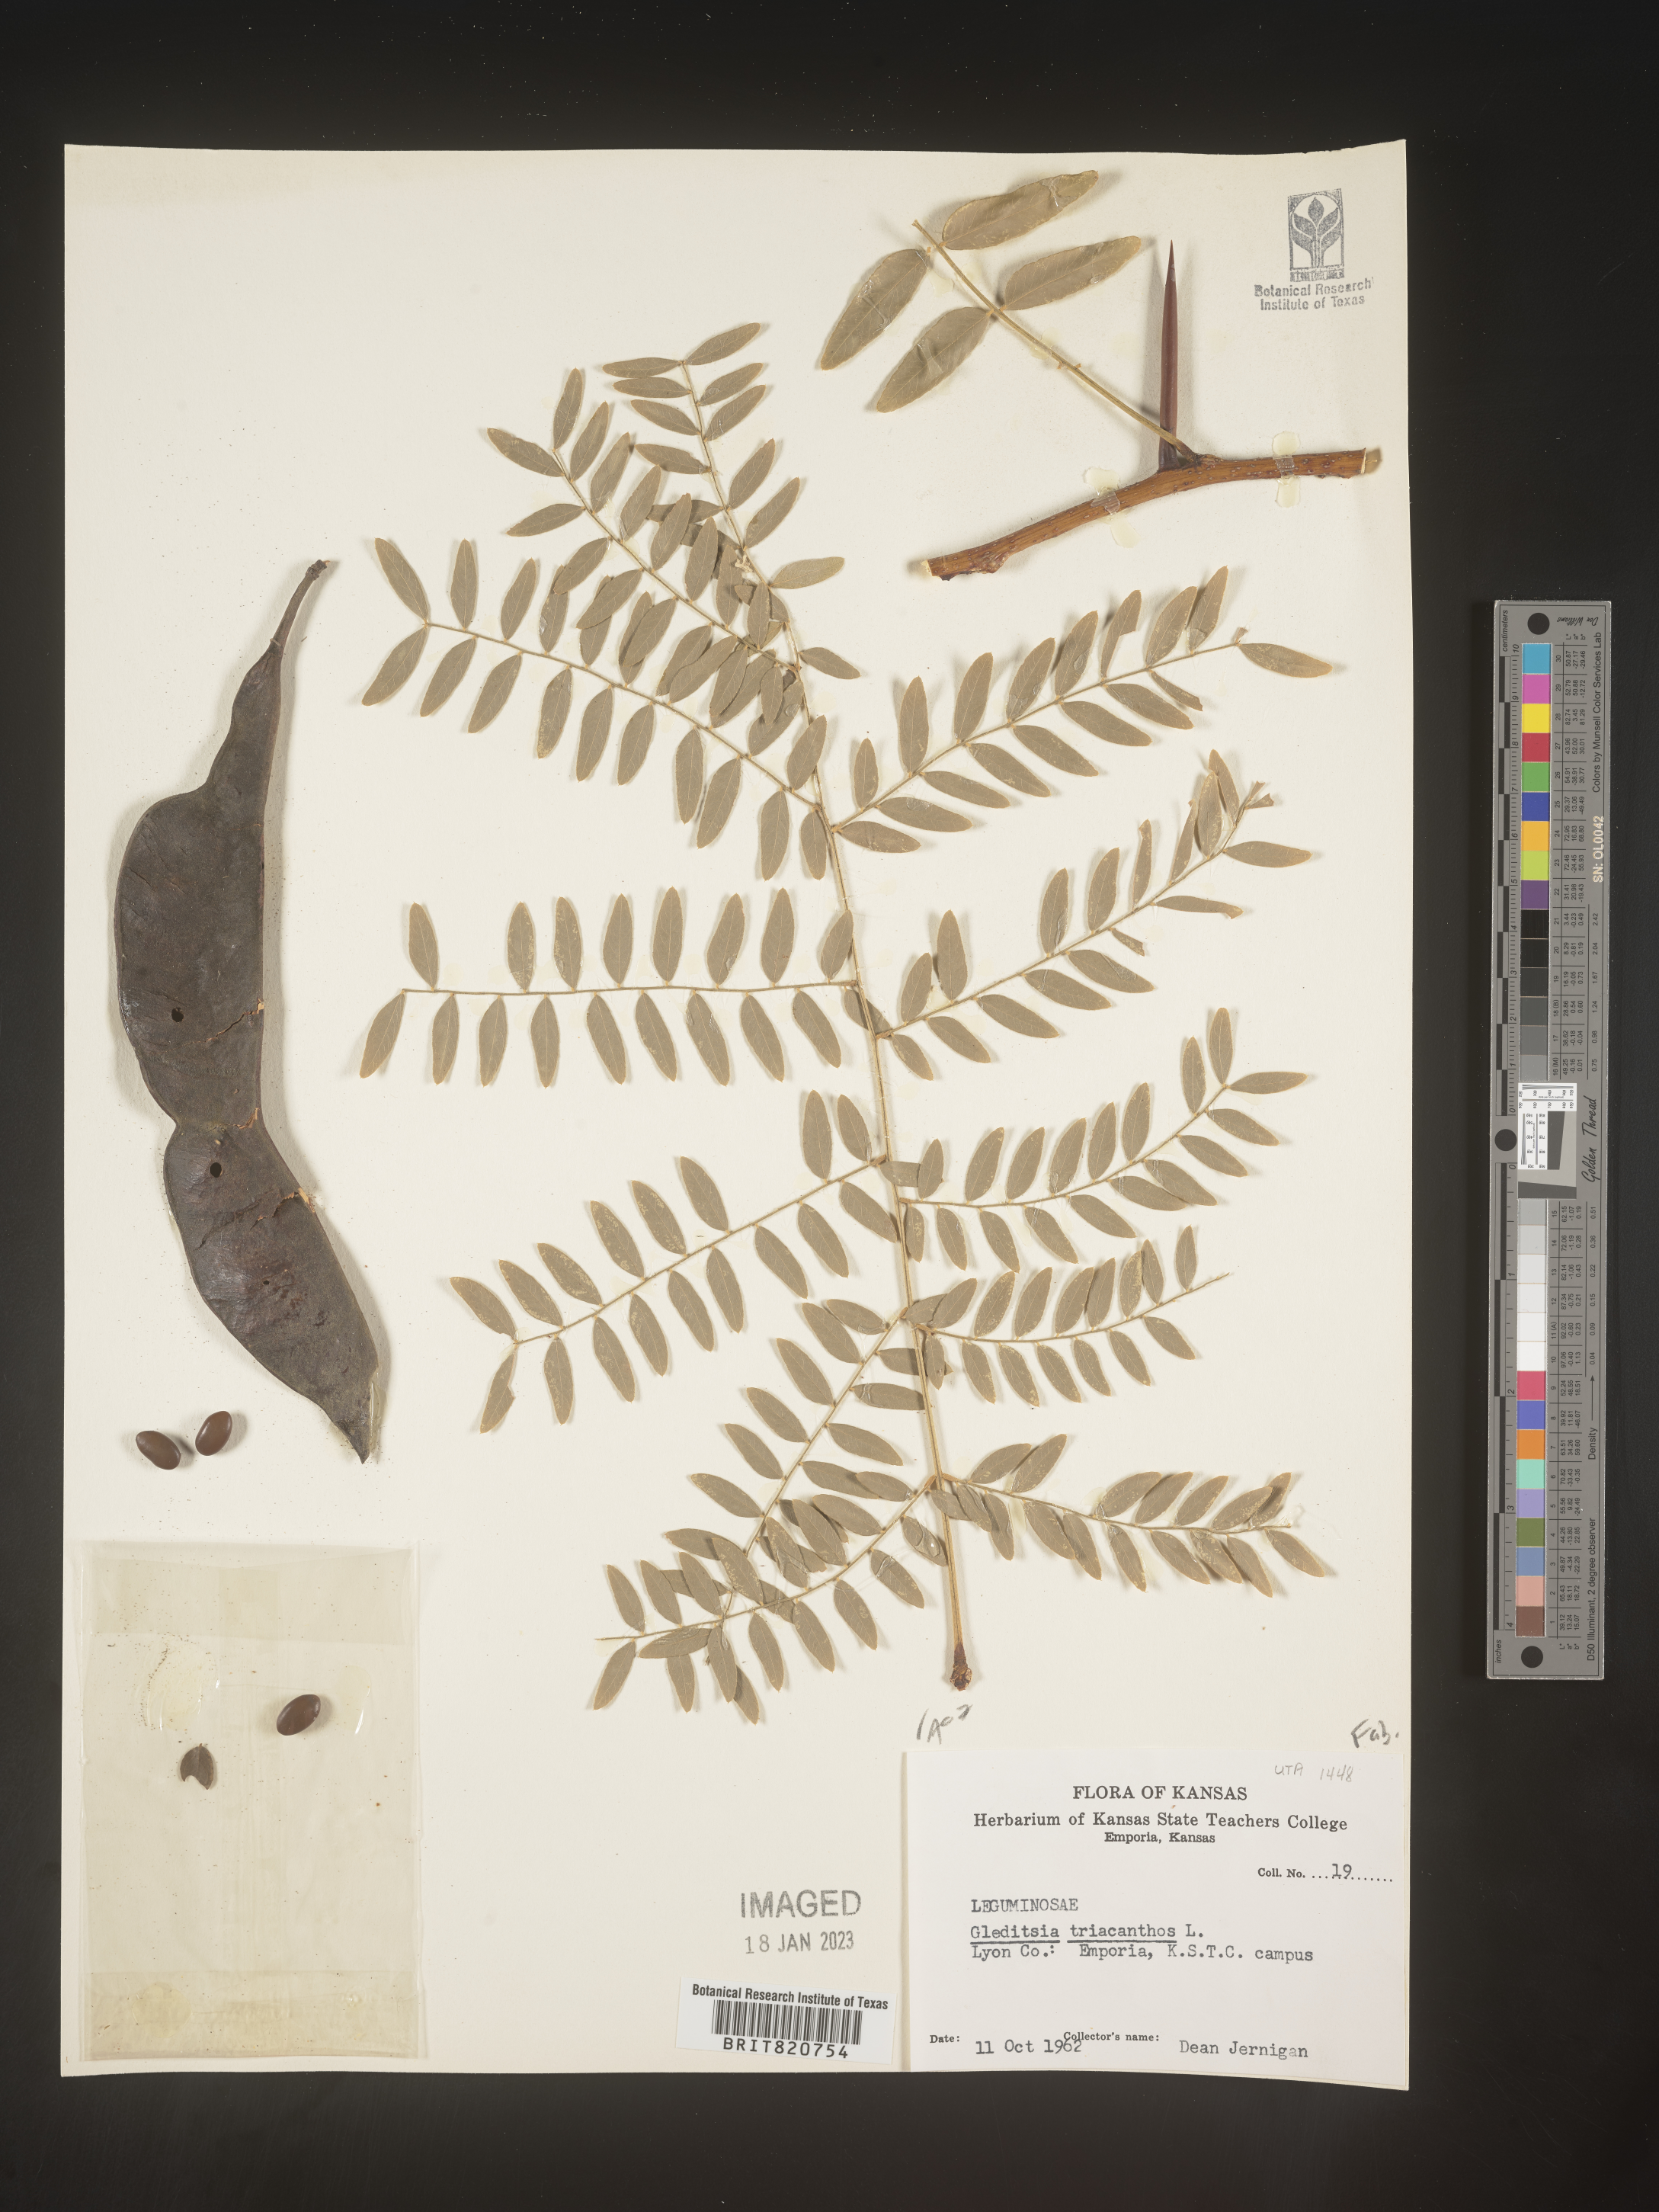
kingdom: Plantae
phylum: Tracheophyta
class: Magnoliopsida
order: Fabales
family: Fabaceae
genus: Gleditsia
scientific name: Gleditsia triacanthos
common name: Common honeylocust
